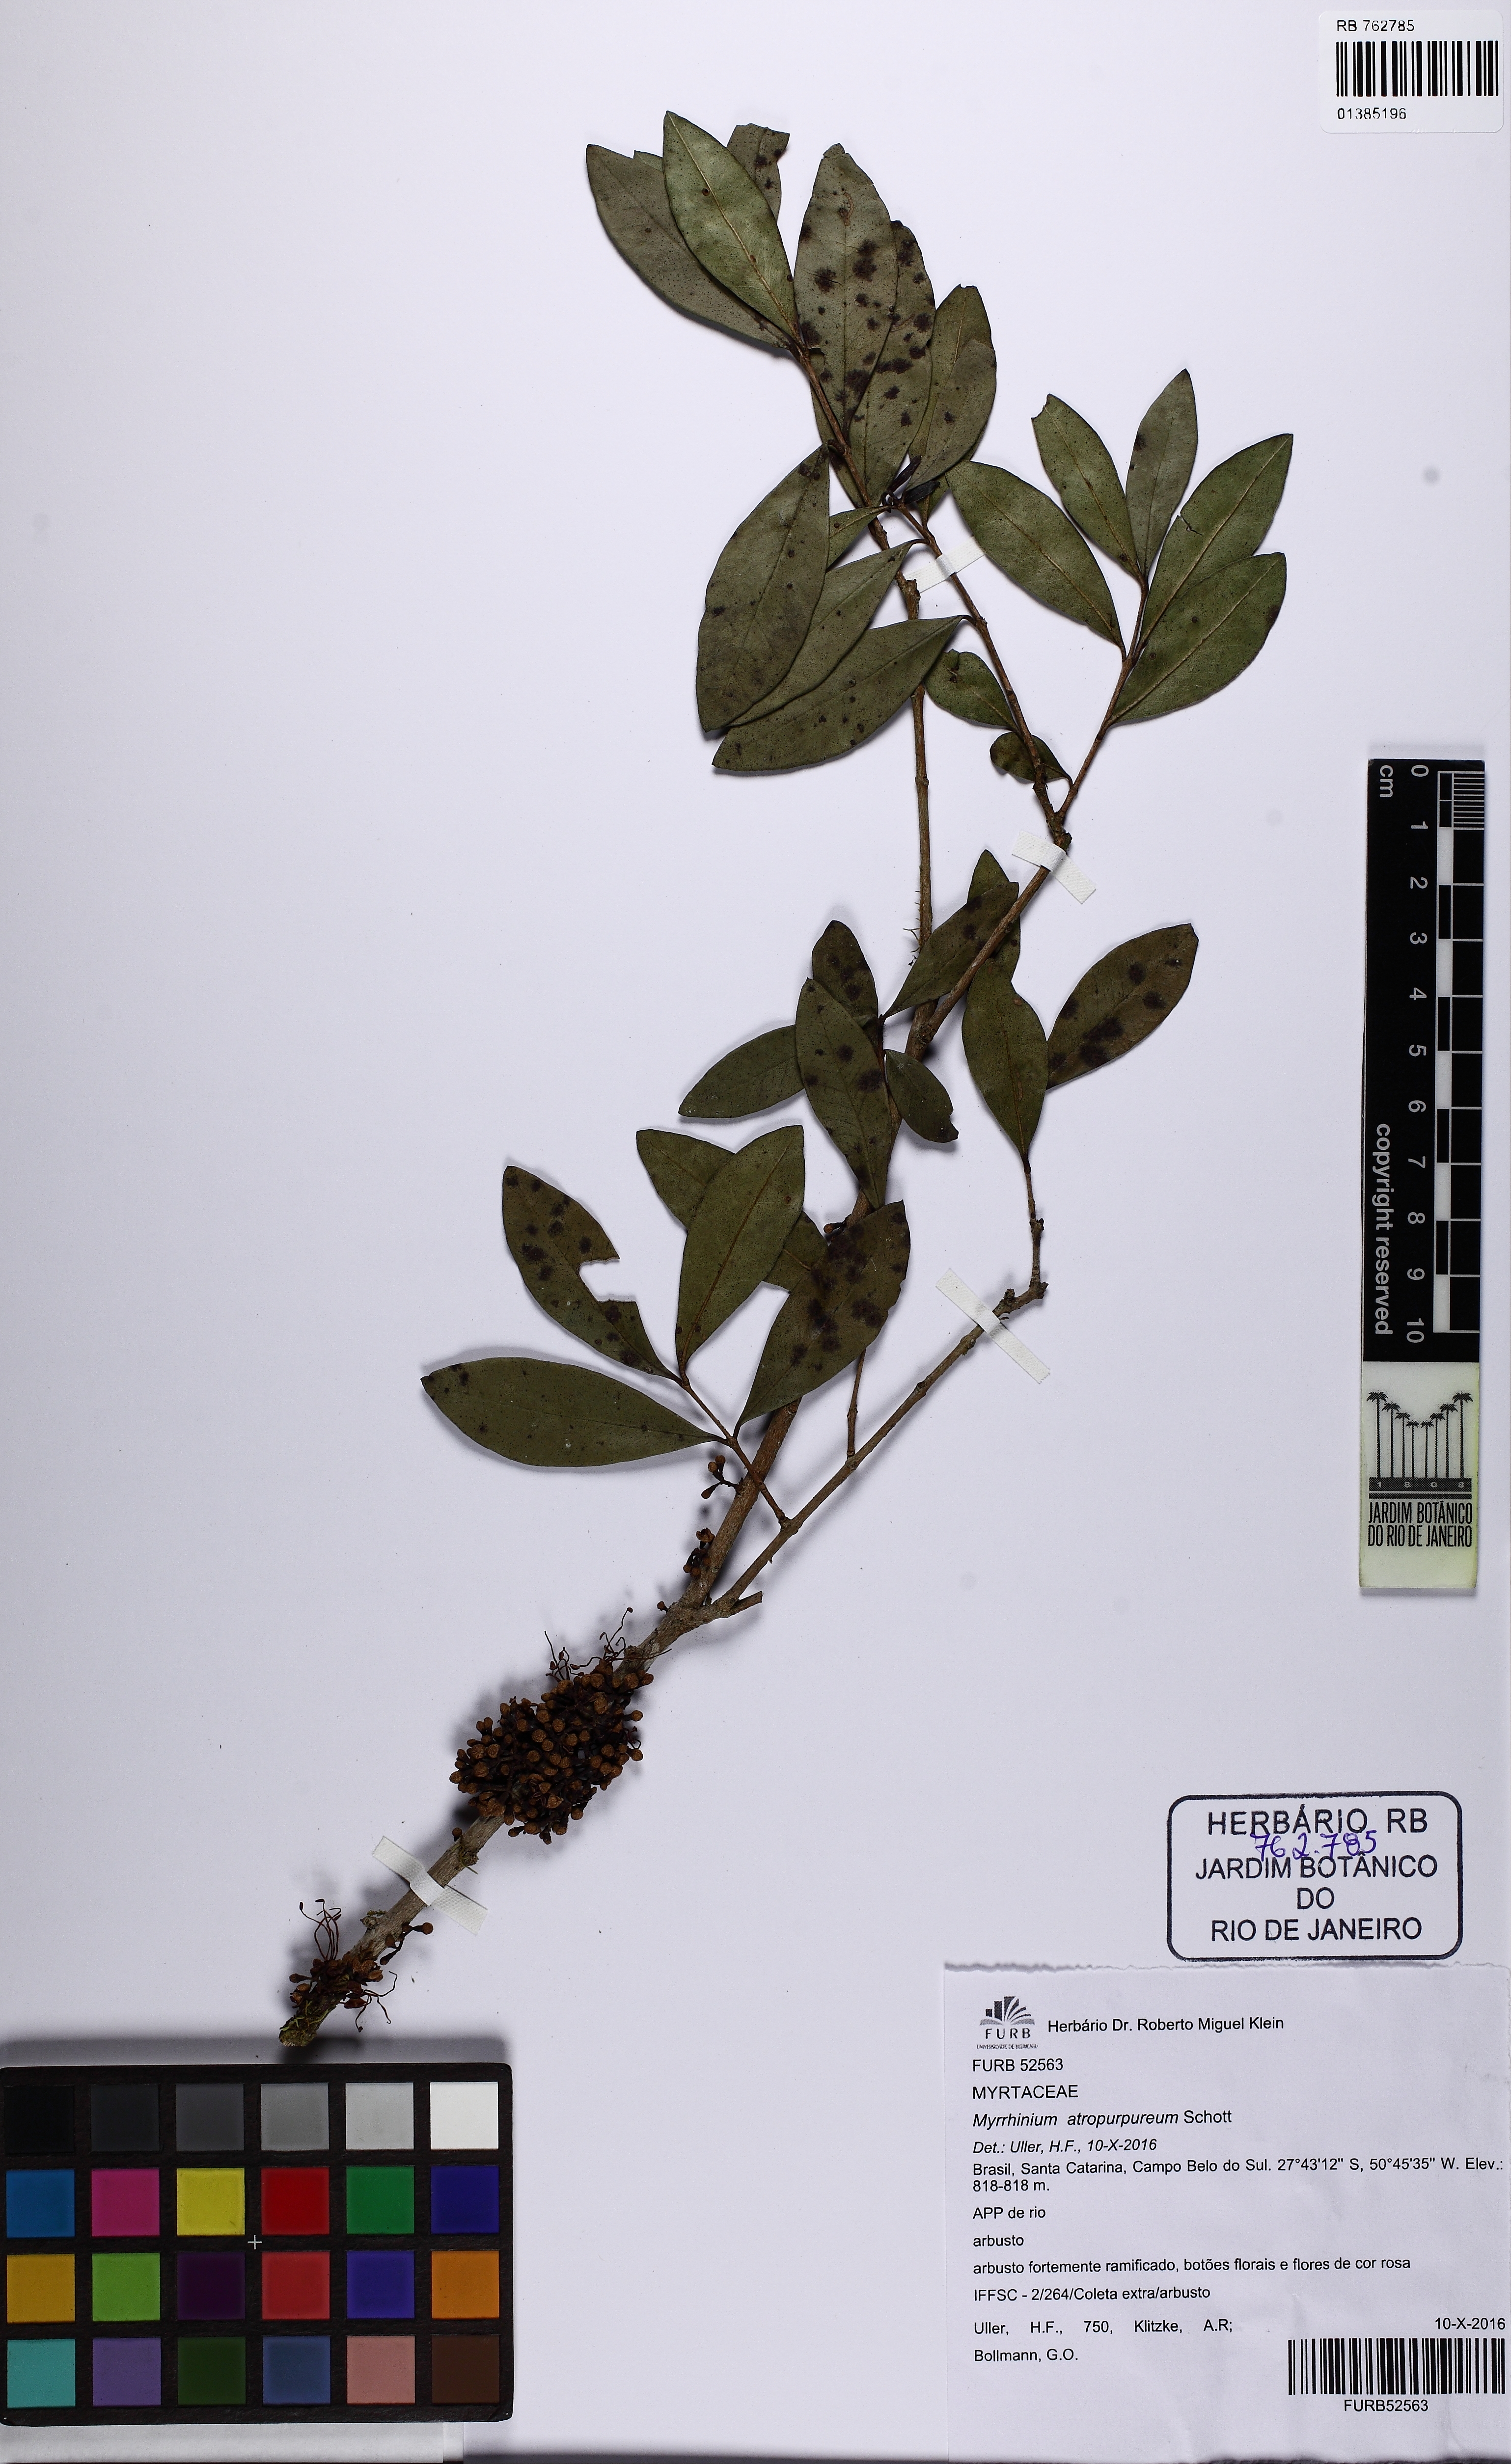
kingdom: Plantae
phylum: Tracheophyta
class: Magnoliopsida
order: Myrtales
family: Myrtaceae
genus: Myrrhinium
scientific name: Myrrhinium atropurpureum
